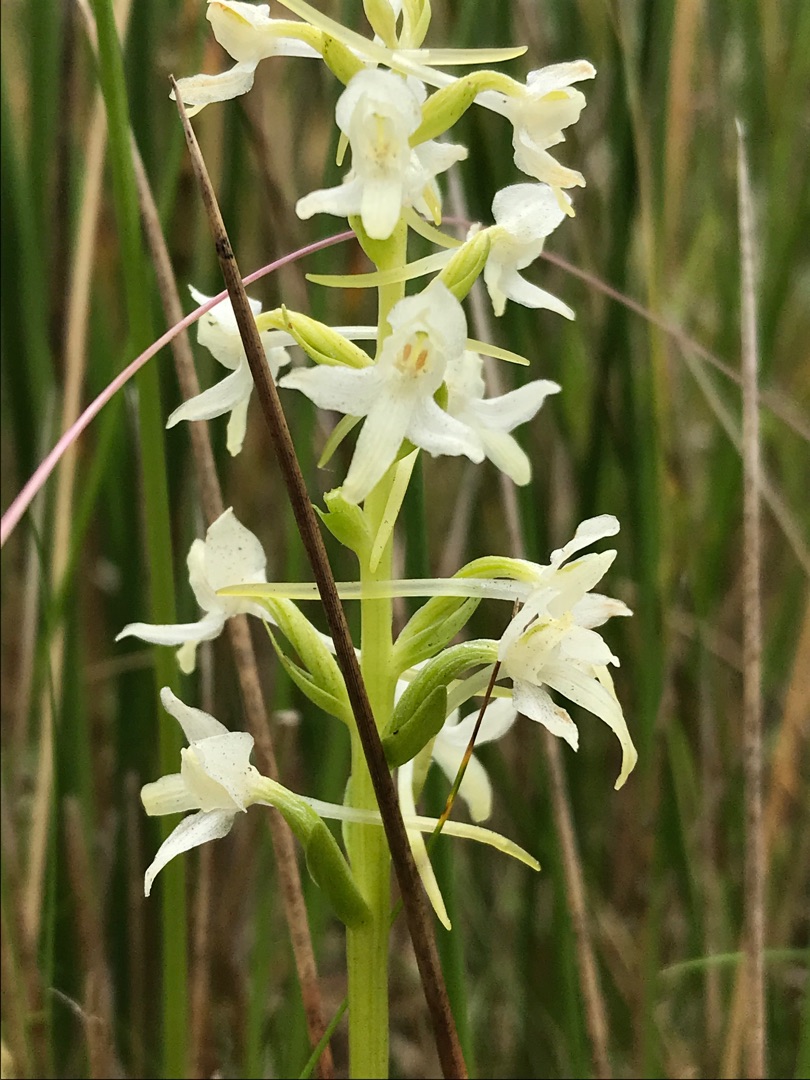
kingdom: Plantae
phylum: Tracheophyta
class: Liliopsida
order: Asparagales
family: Orchidaceae
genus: Platanthera
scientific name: Platanthera bifolia
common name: Bakke-gøgelilje
